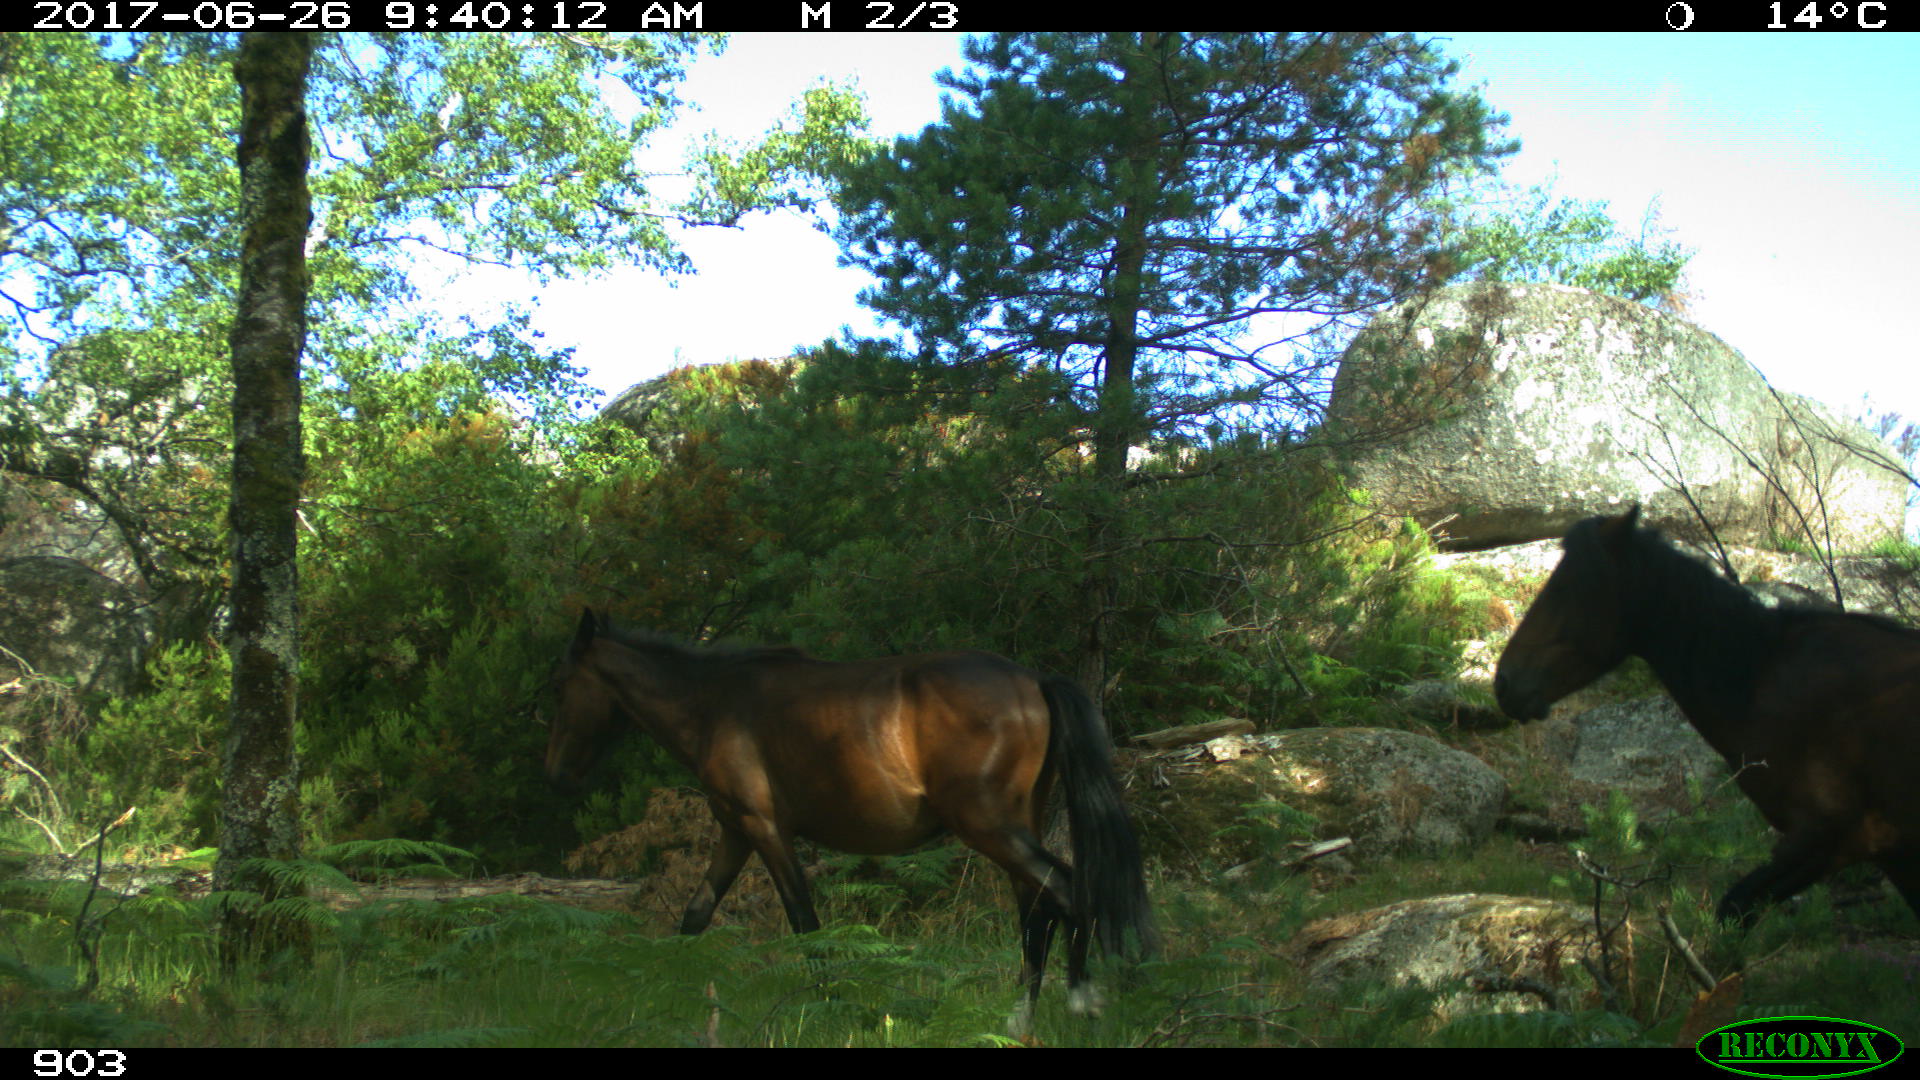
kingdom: Animalia
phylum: Chordata
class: Mammalia
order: Perissodactyla
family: Equidae
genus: Equus
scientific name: Equus caballus
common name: Horse
